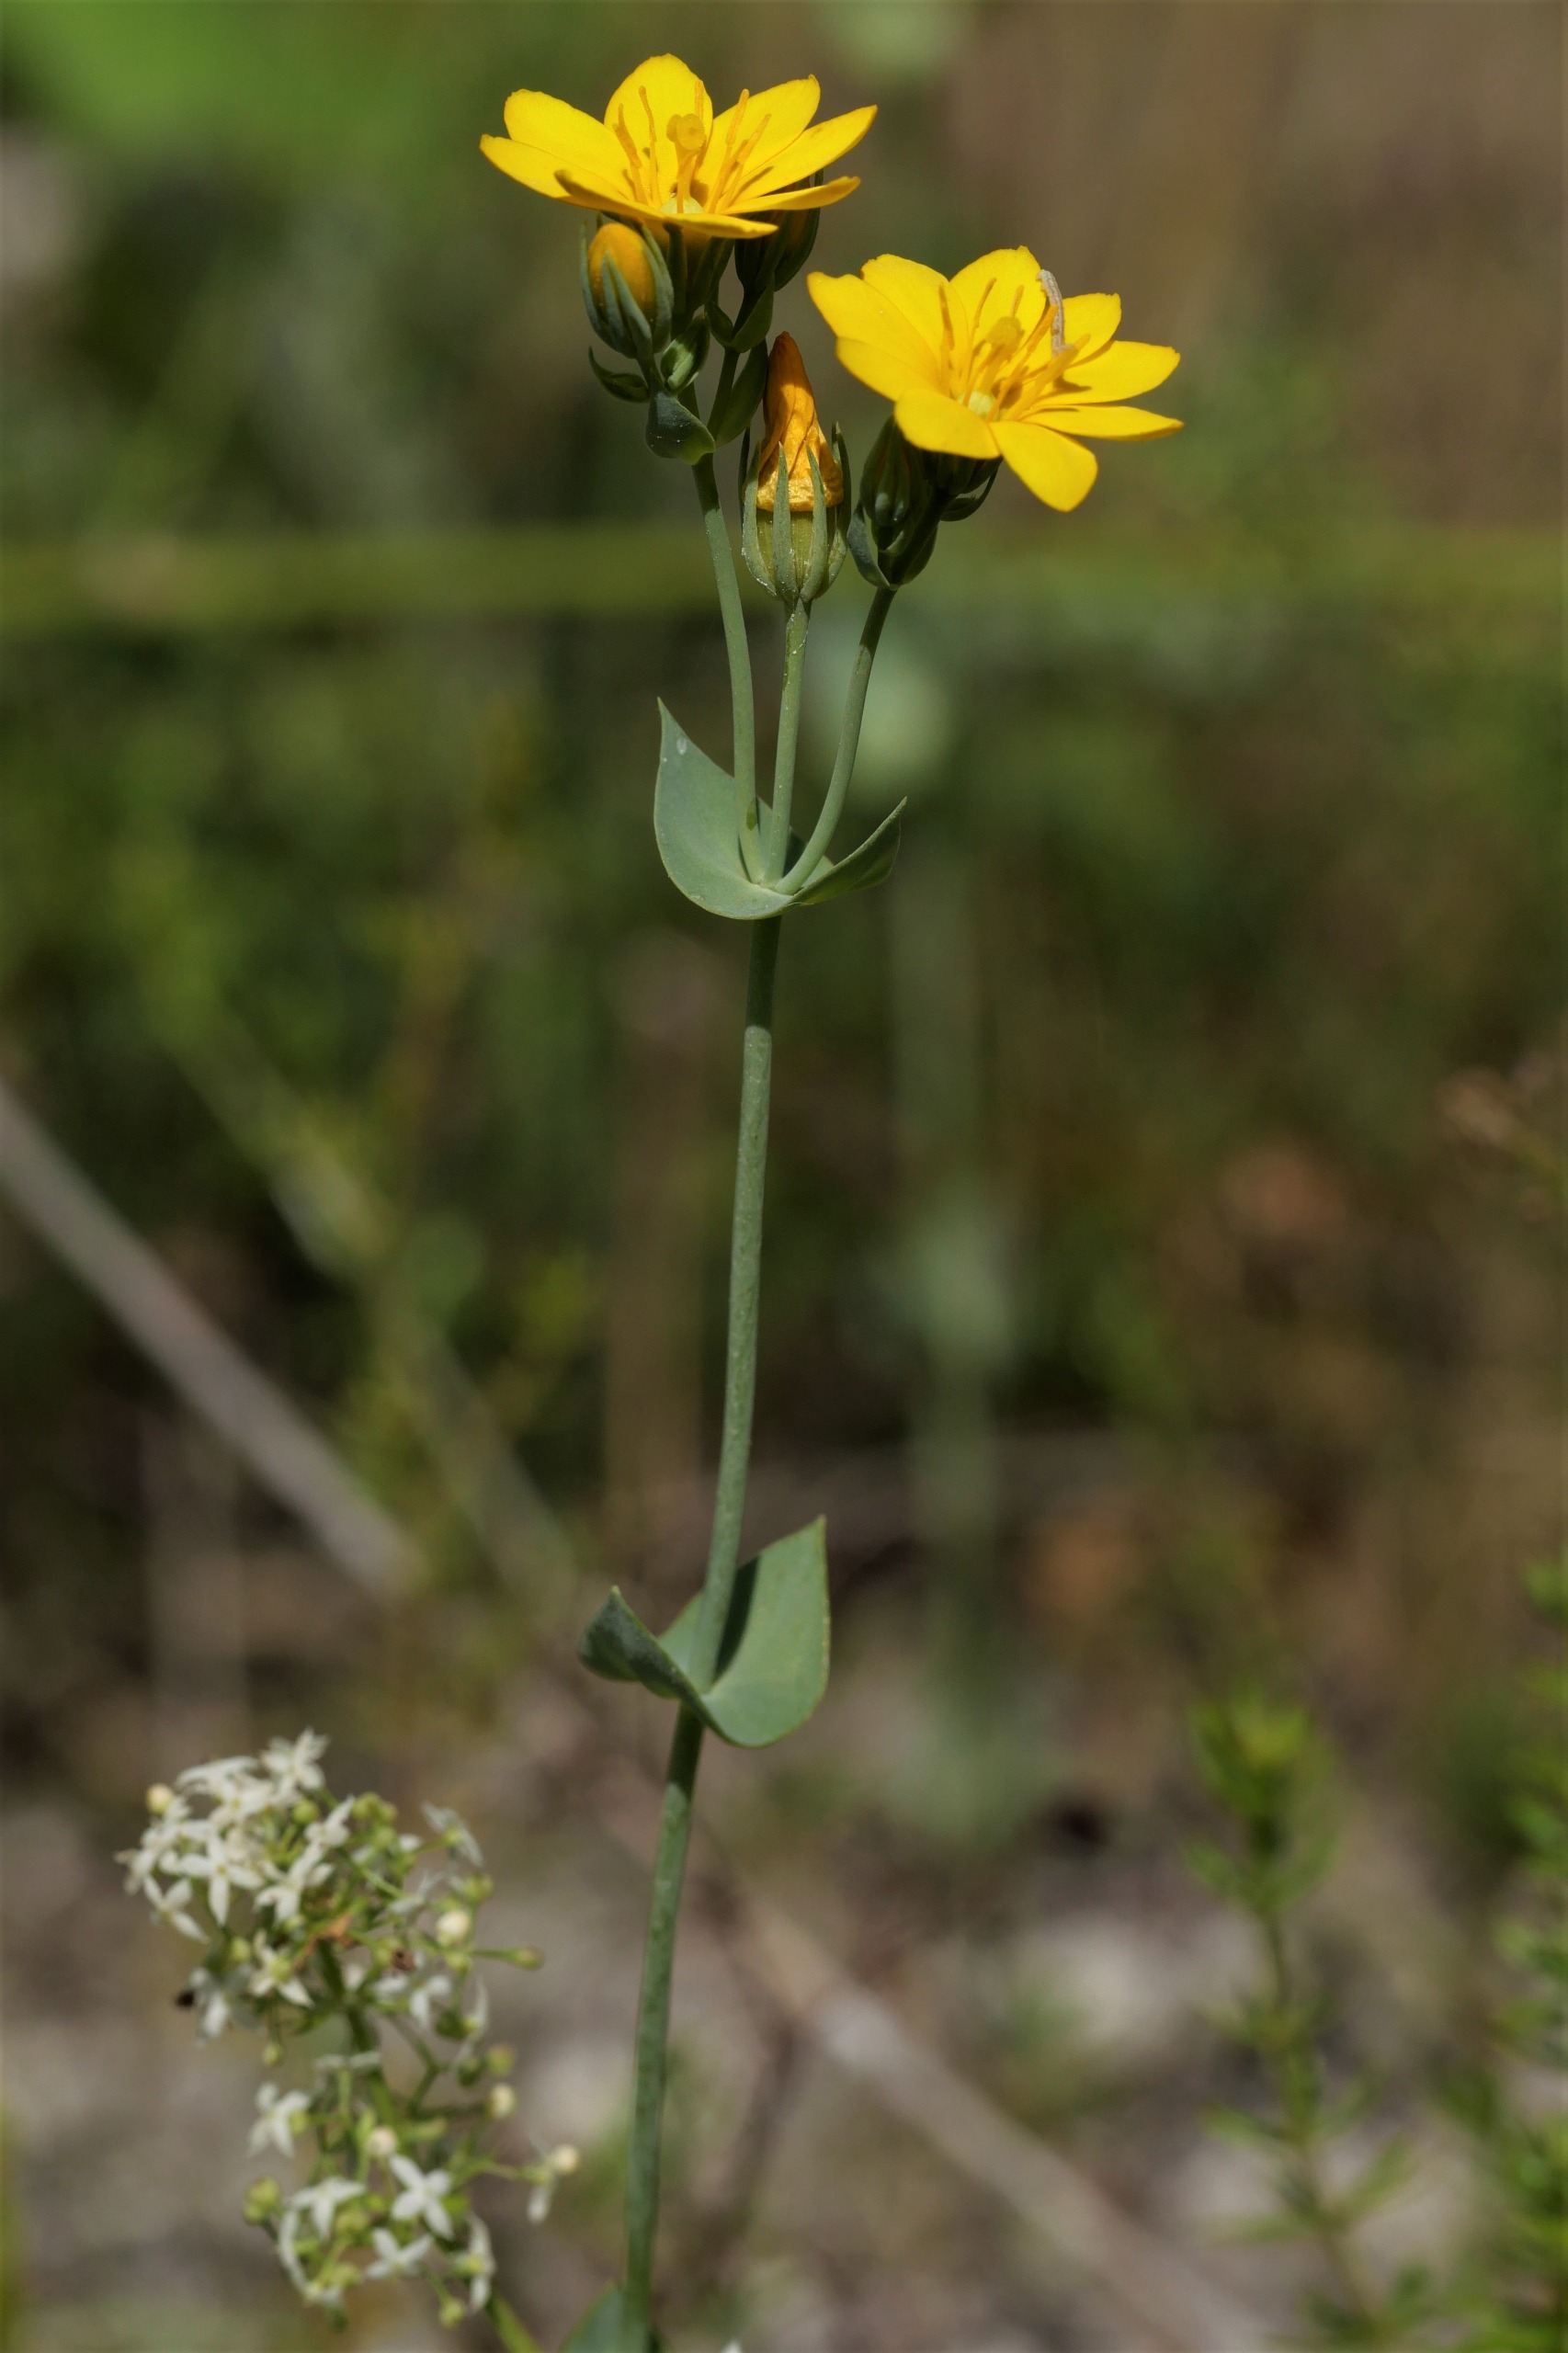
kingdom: Plantae
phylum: Tracheophyta
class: Magnoliopsida
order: Gentianales
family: Gentianaceae
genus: Blackstonia
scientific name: Blackstonia perfoliata
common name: Almindelig gyldenurt
